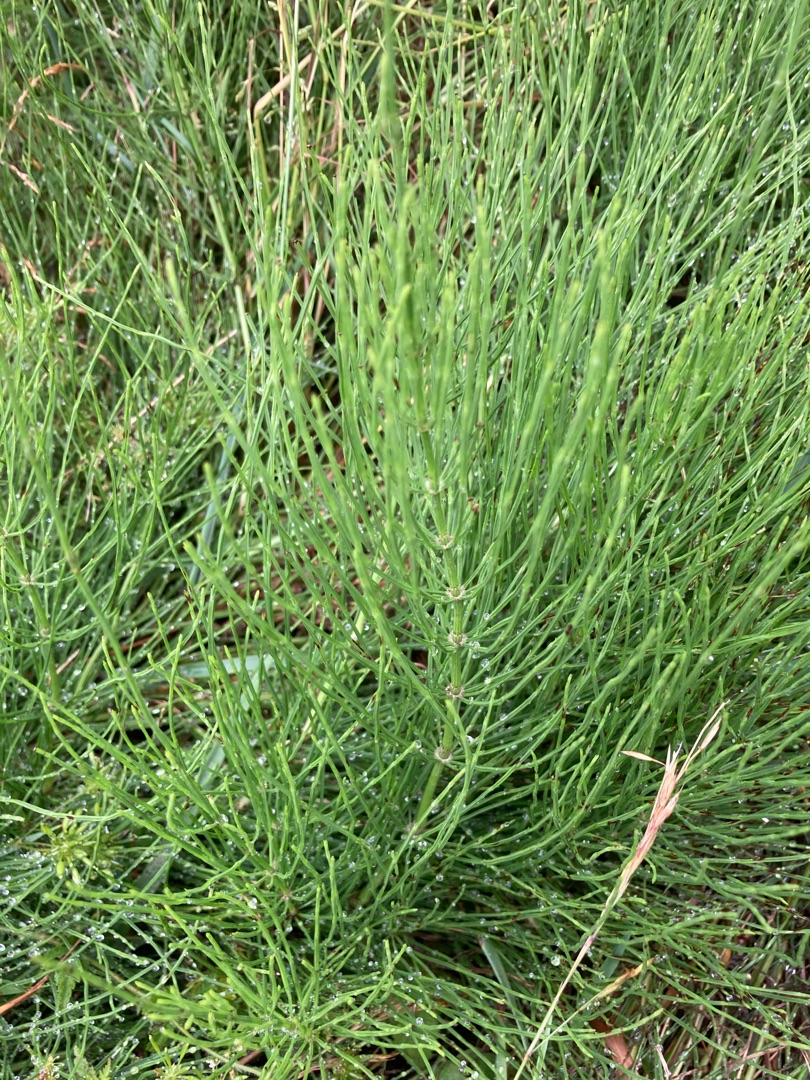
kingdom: Plantae
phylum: Tracheophyta
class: Polypodiopsida
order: Equisetales
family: Equisetaceae
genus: Equisetum
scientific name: Equisetum arvense
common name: Ager-padderok
